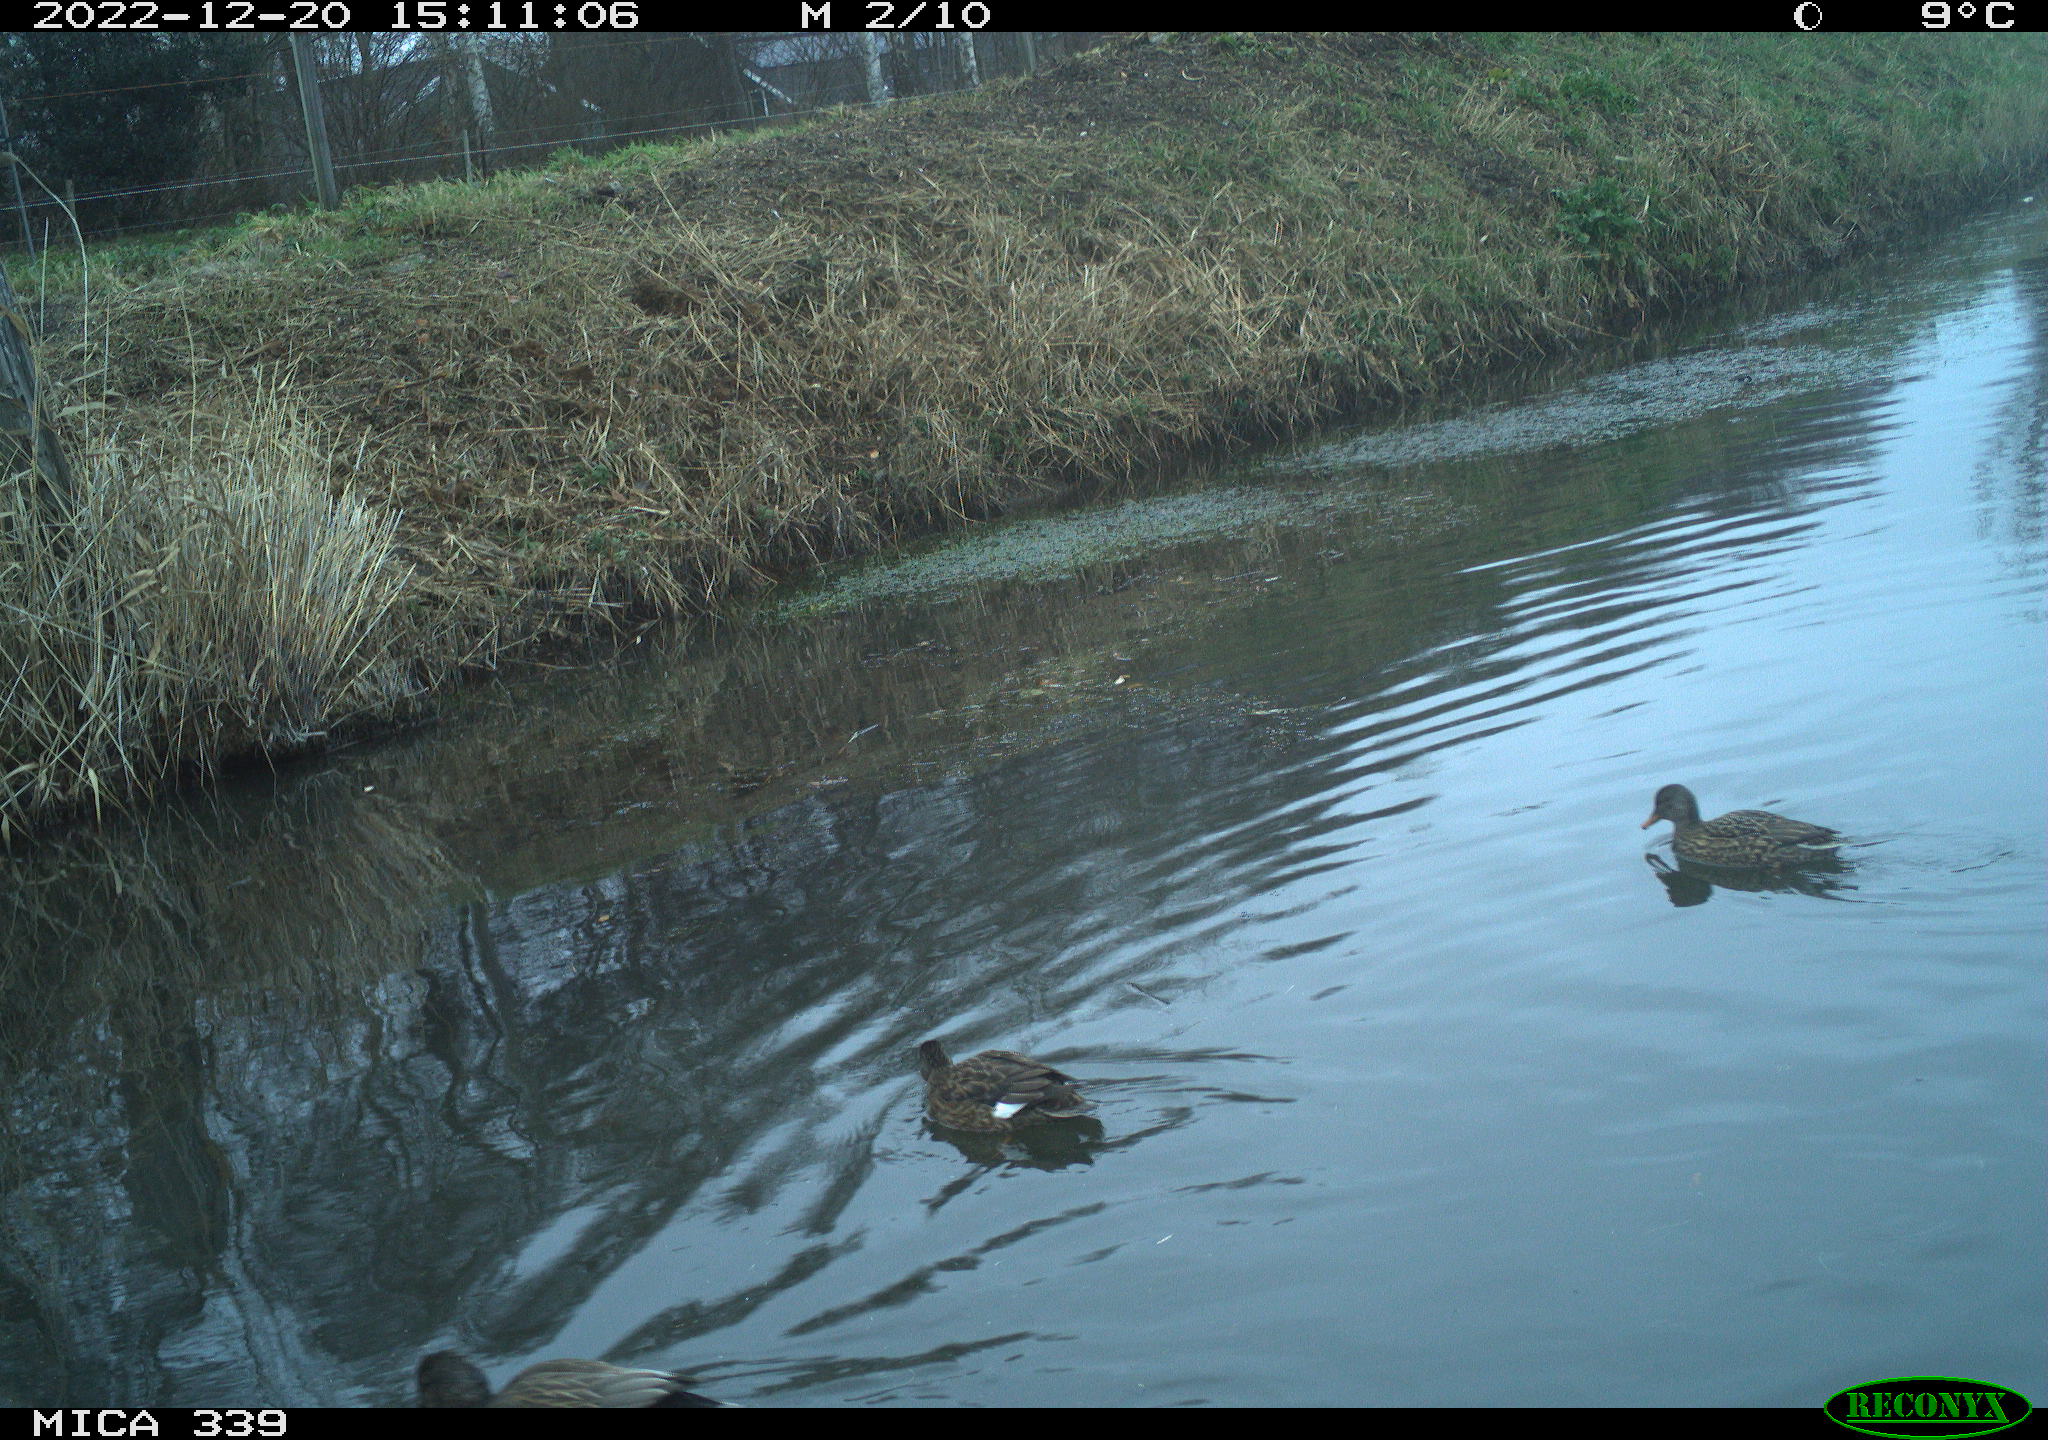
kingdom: Animalia
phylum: Chordata
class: Aves
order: Anseriformes
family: Anatidae
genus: Anas
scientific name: Anas
